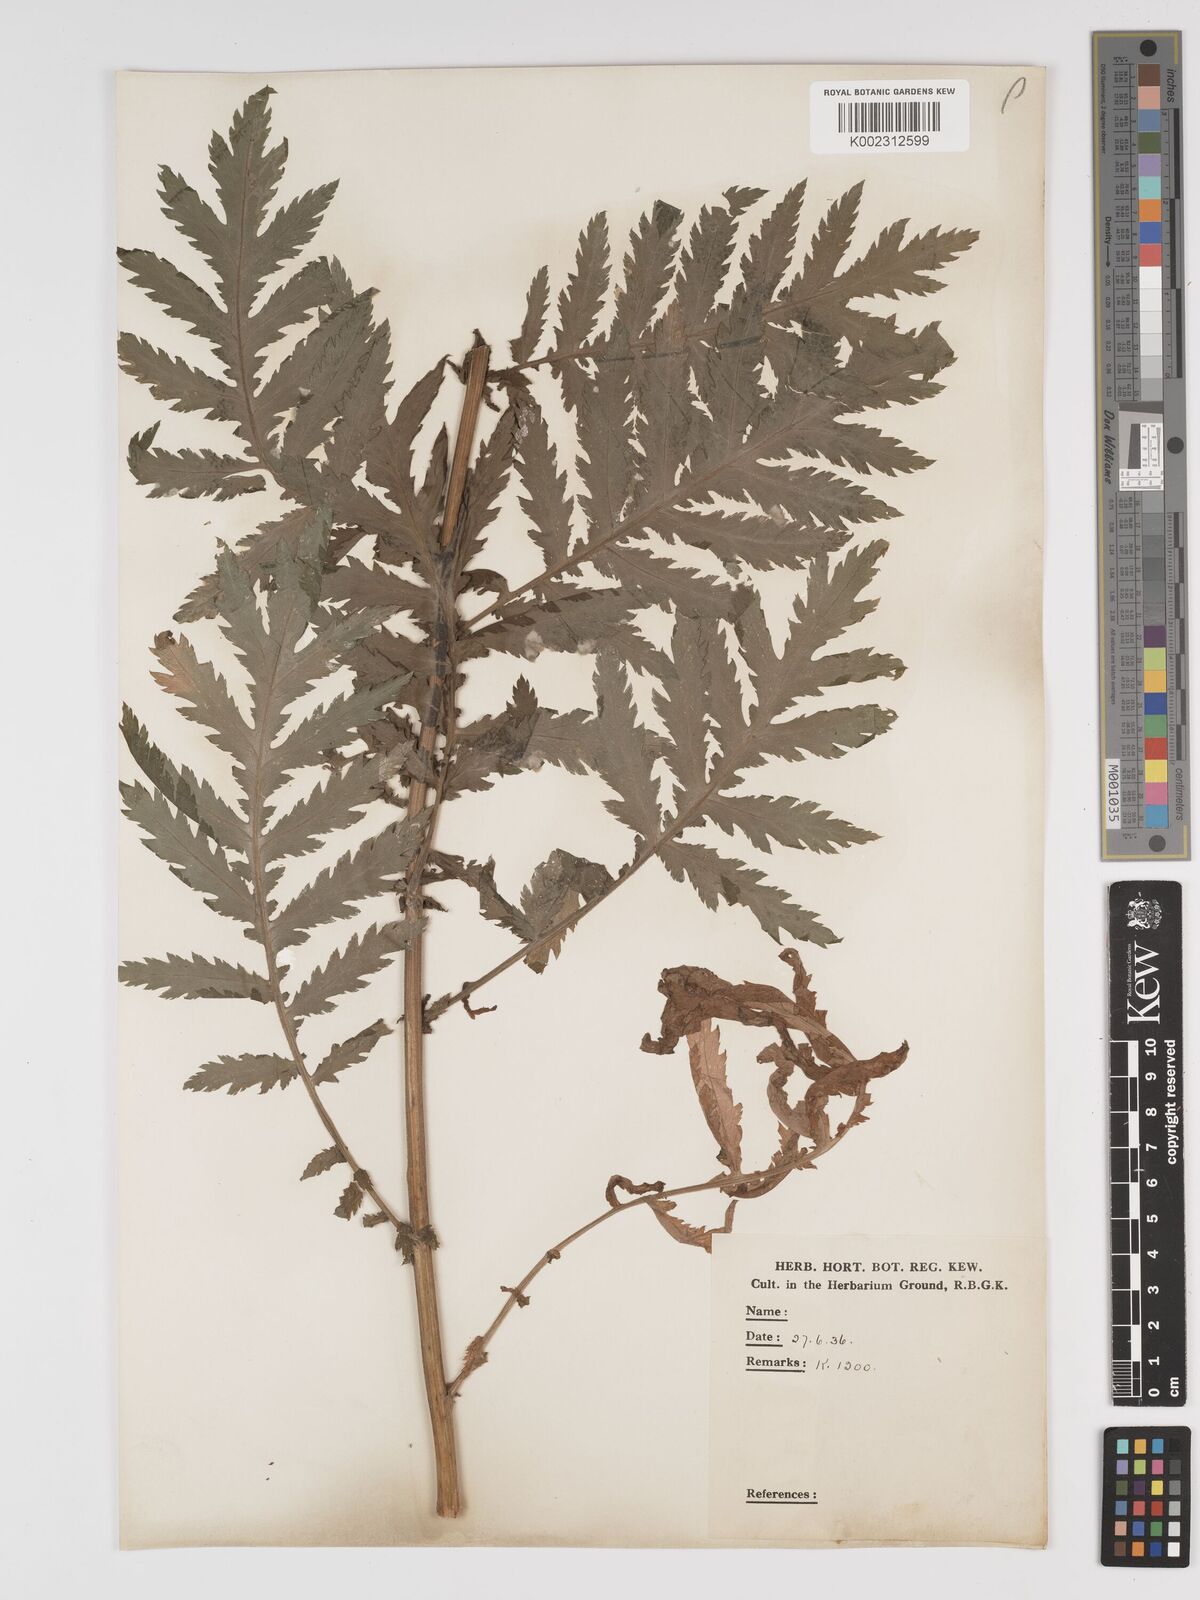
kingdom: Plantae
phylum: Tracheophyta
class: Magnoliopsida
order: Asterales
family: Asteraceae
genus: Tanacetum
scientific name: Tanacetum macrophyllum
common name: Rayed tansy
